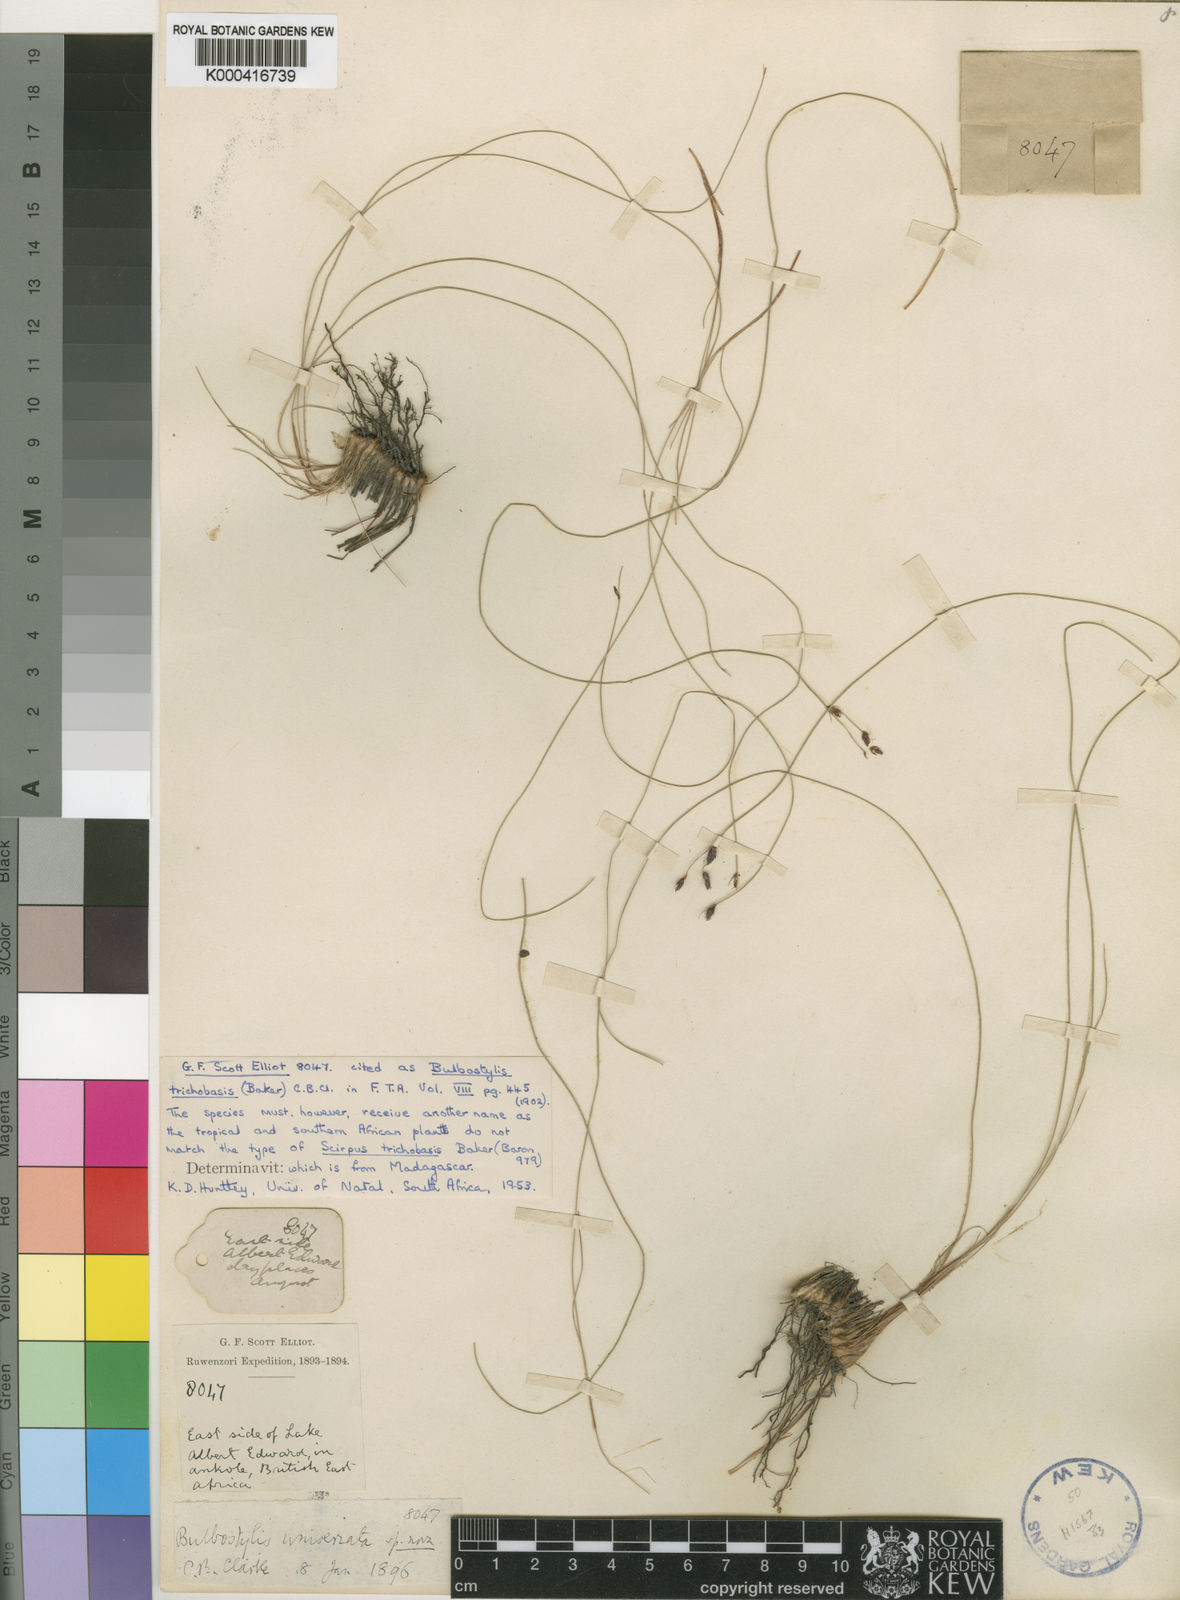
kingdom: Plantae
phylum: Tracheophyta
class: Liliopsida
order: Poales
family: Cyperaceae
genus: Bulbostylis
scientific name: Bulbostylis oritrephes
